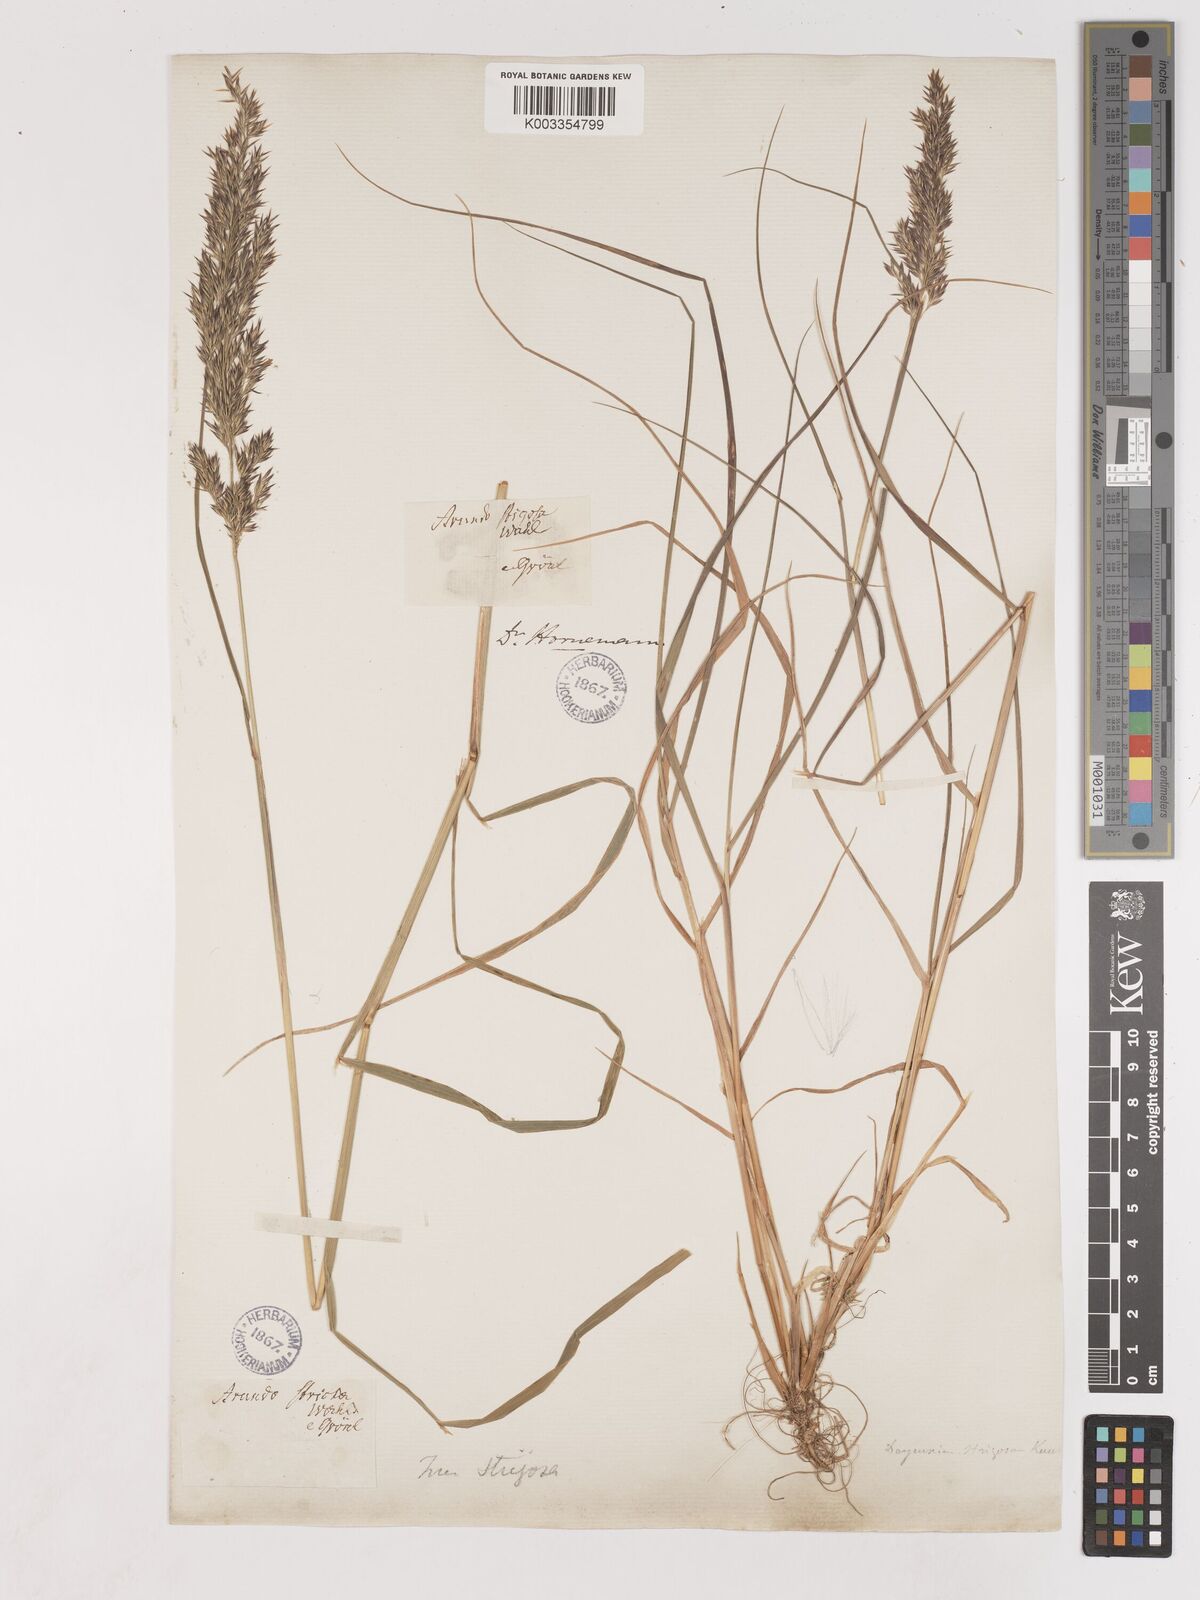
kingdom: Plantae
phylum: Tracheophyta
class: Liliopsida
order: Poales
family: Poaceae
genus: Cinnagrostis
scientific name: Cinnagrostis recta
